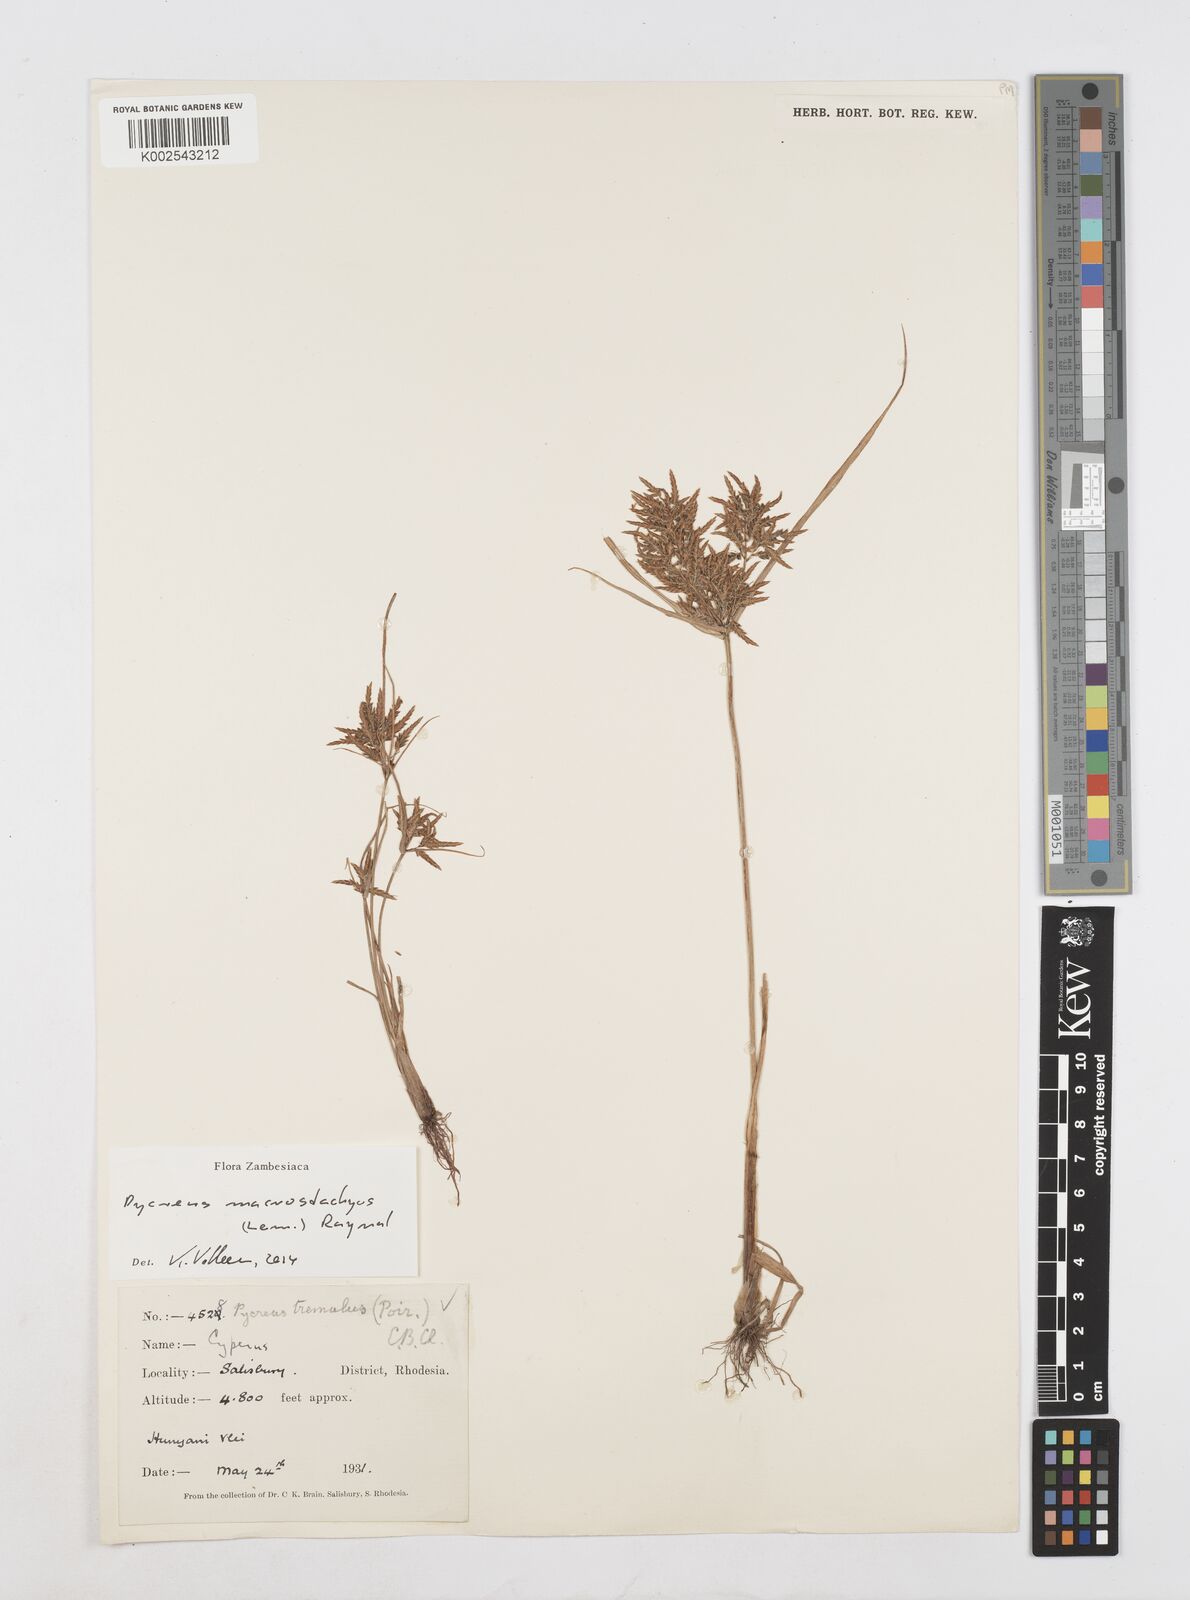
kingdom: Plantae
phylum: Tracheophyta
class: Liliopsida
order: Poales
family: Cyperaceae
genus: Cyperus
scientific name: Cyperus macrostachyos
